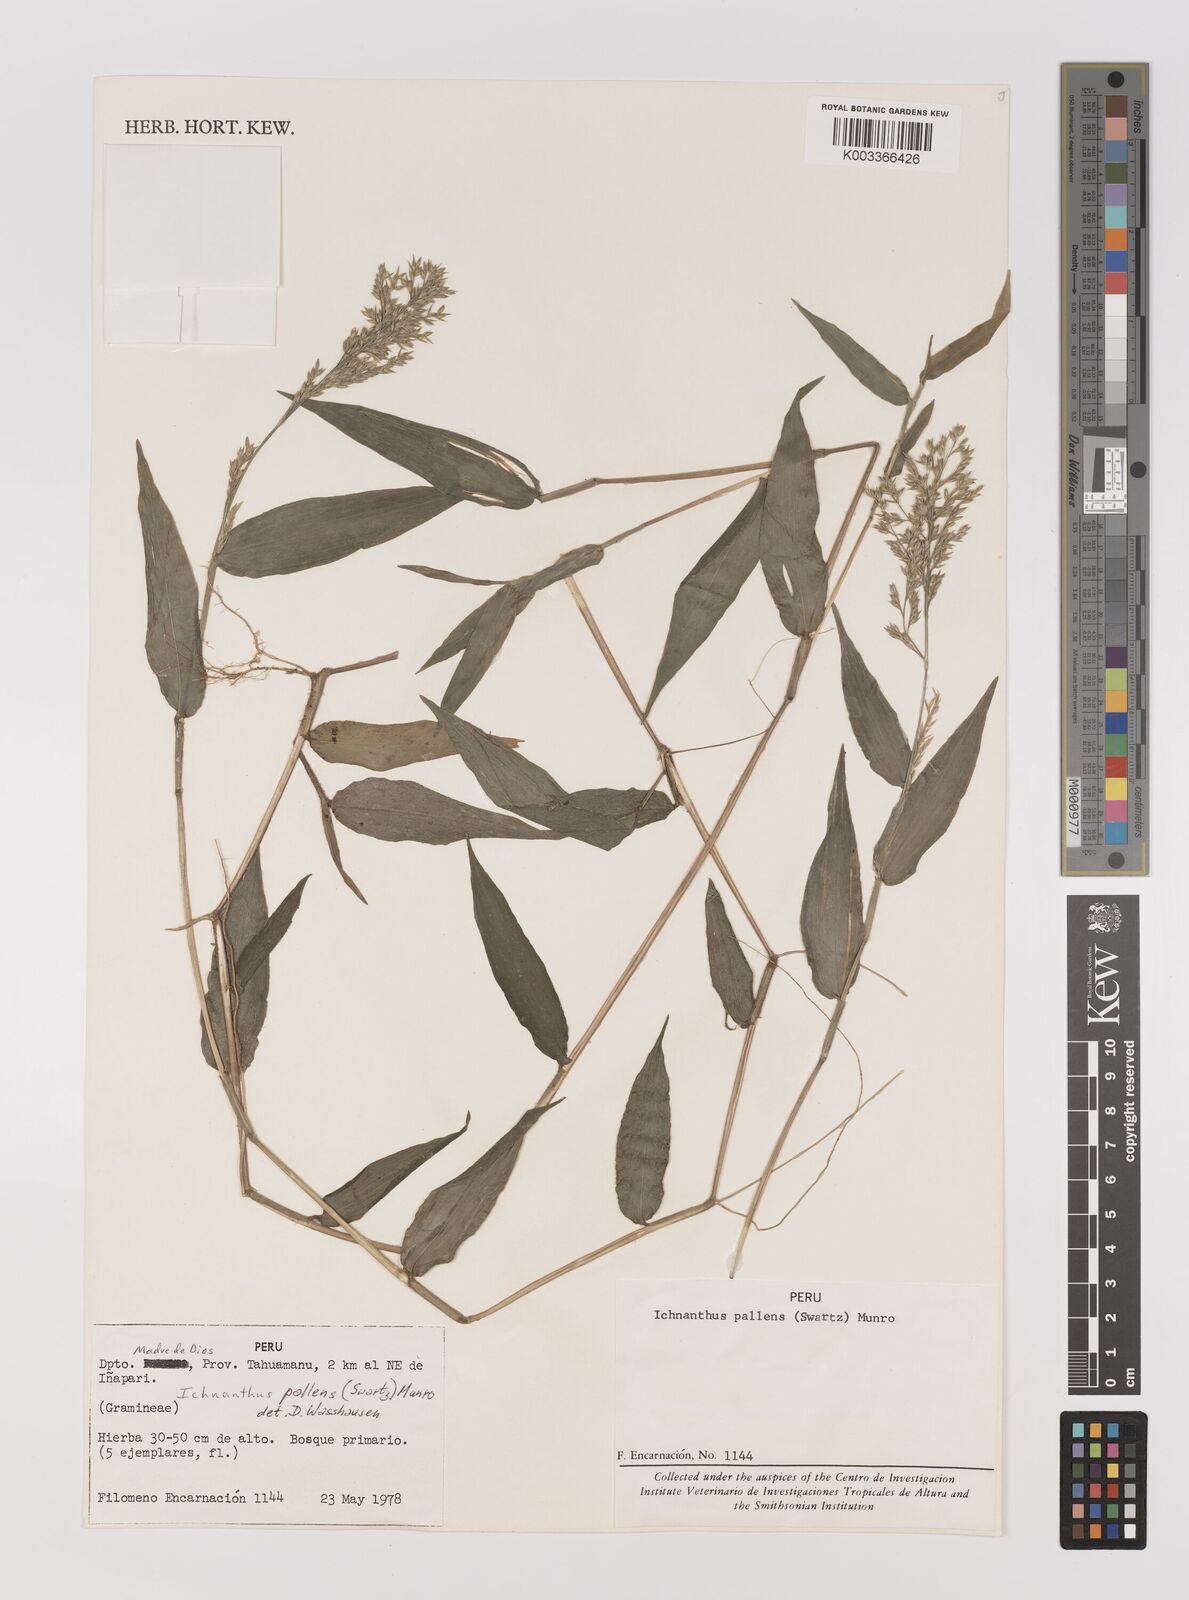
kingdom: Plantae
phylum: Tracheophyta
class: Liliopsida
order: Poales
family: Poaceae
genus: Ichnanthus
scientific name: Ichnanthus pallens
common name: Water grass
